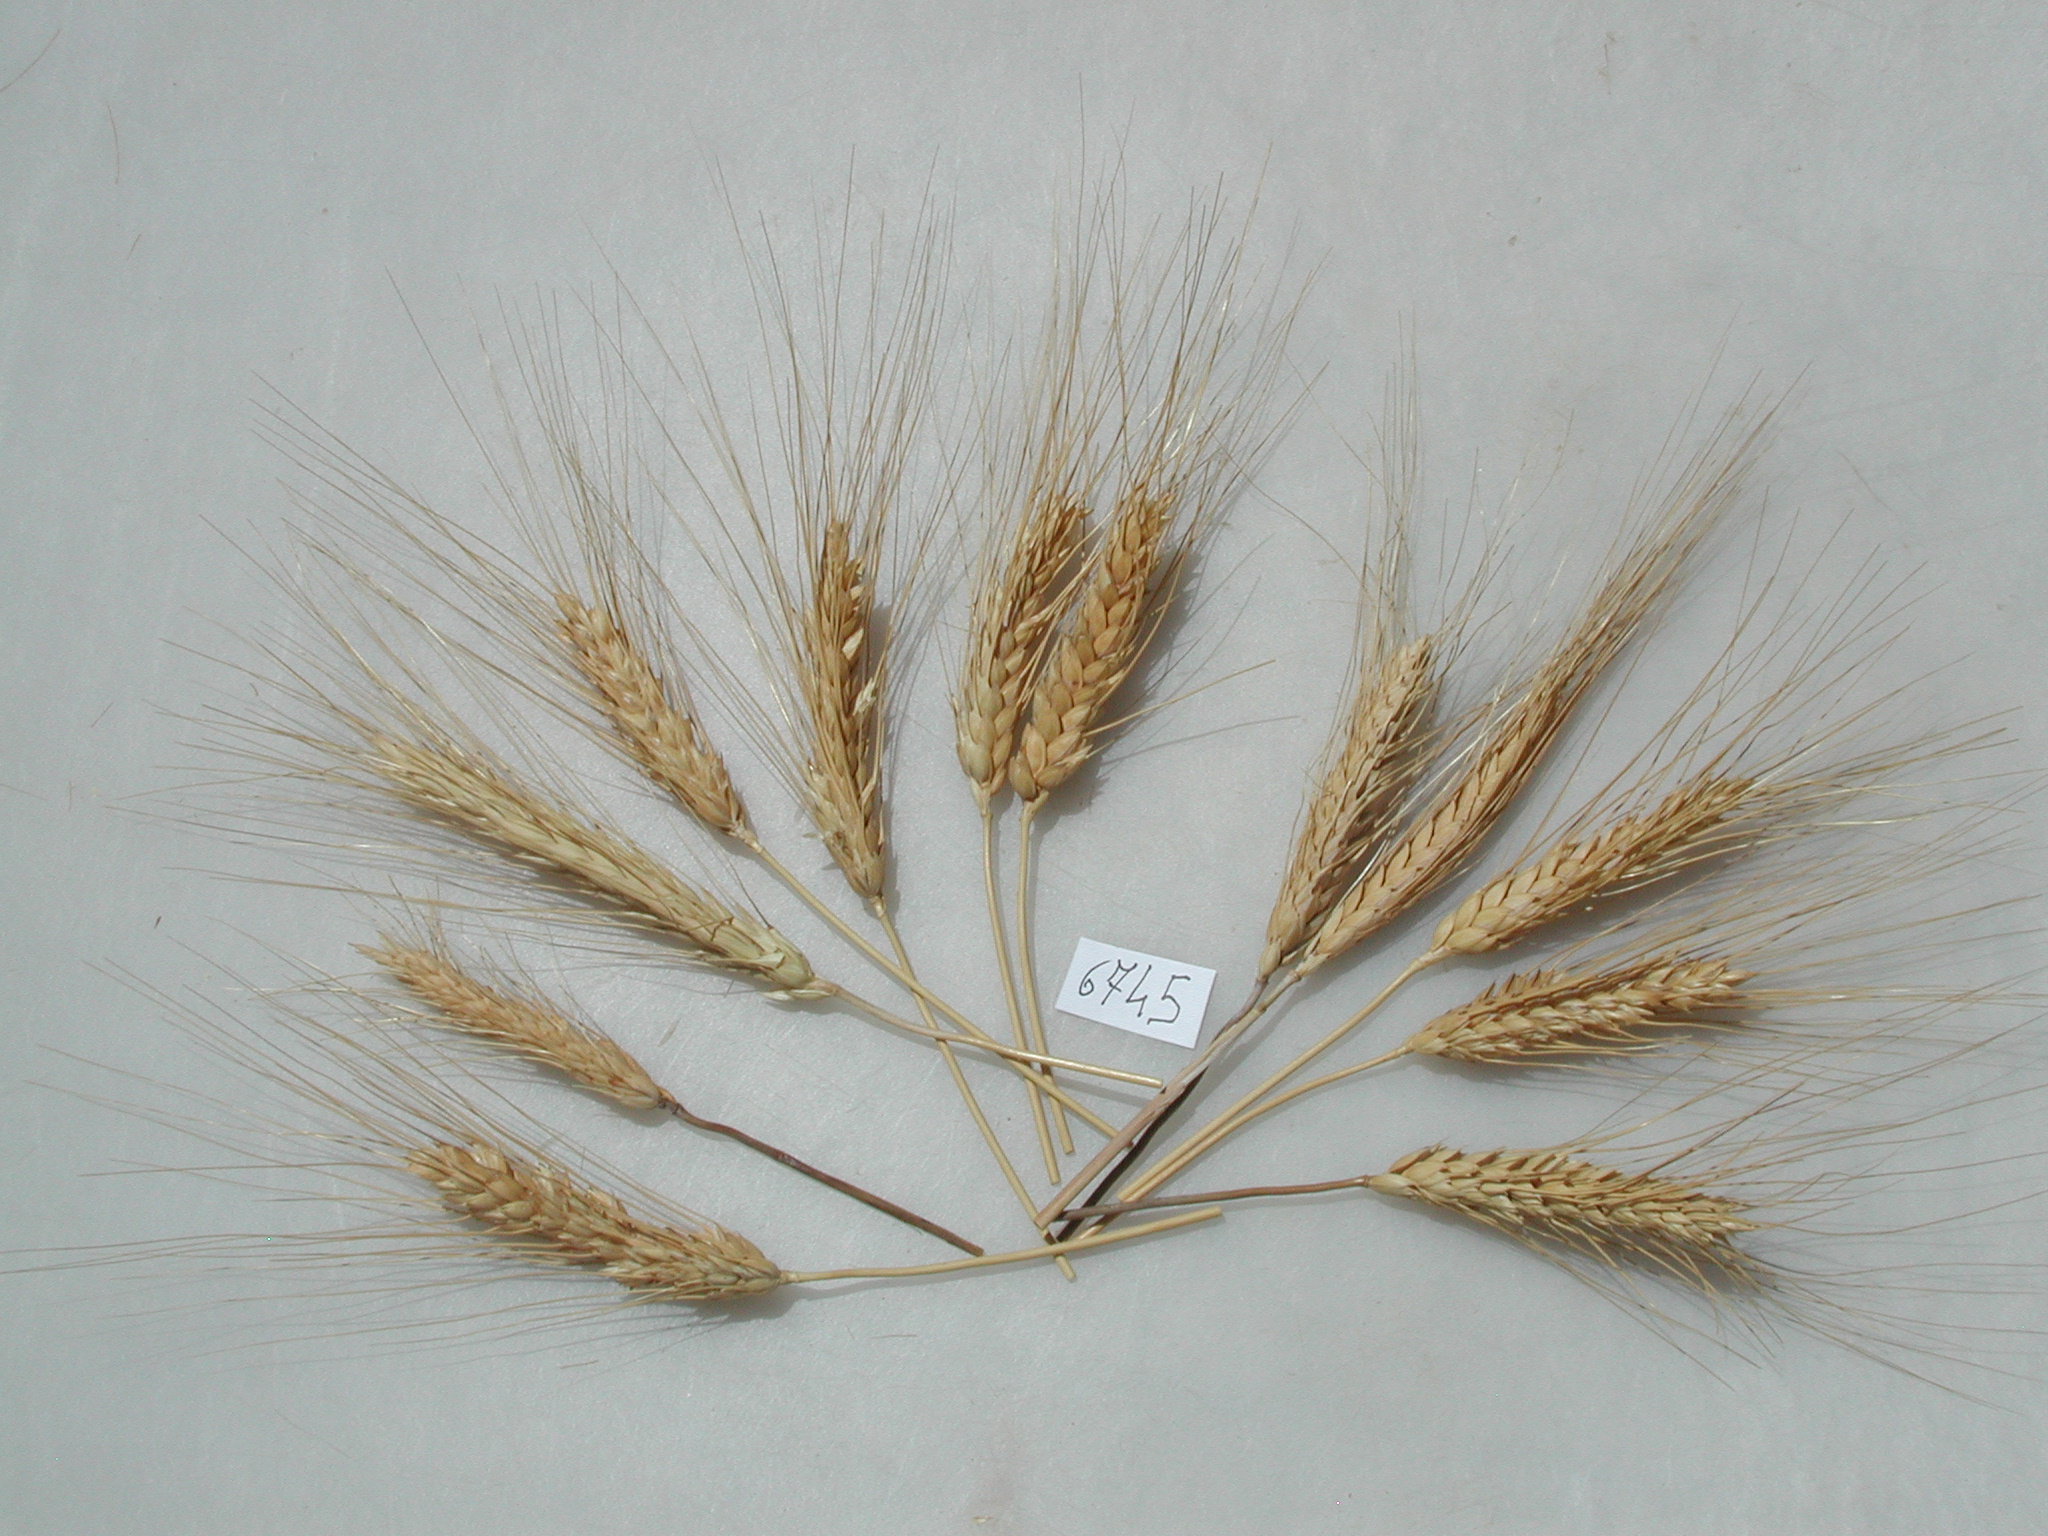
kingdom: Plantae
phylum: Tracheophyta
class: Liliopsida
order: Poales
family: Poaceae
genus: Triticum
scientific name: Triticum turgidum
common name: Wheat
